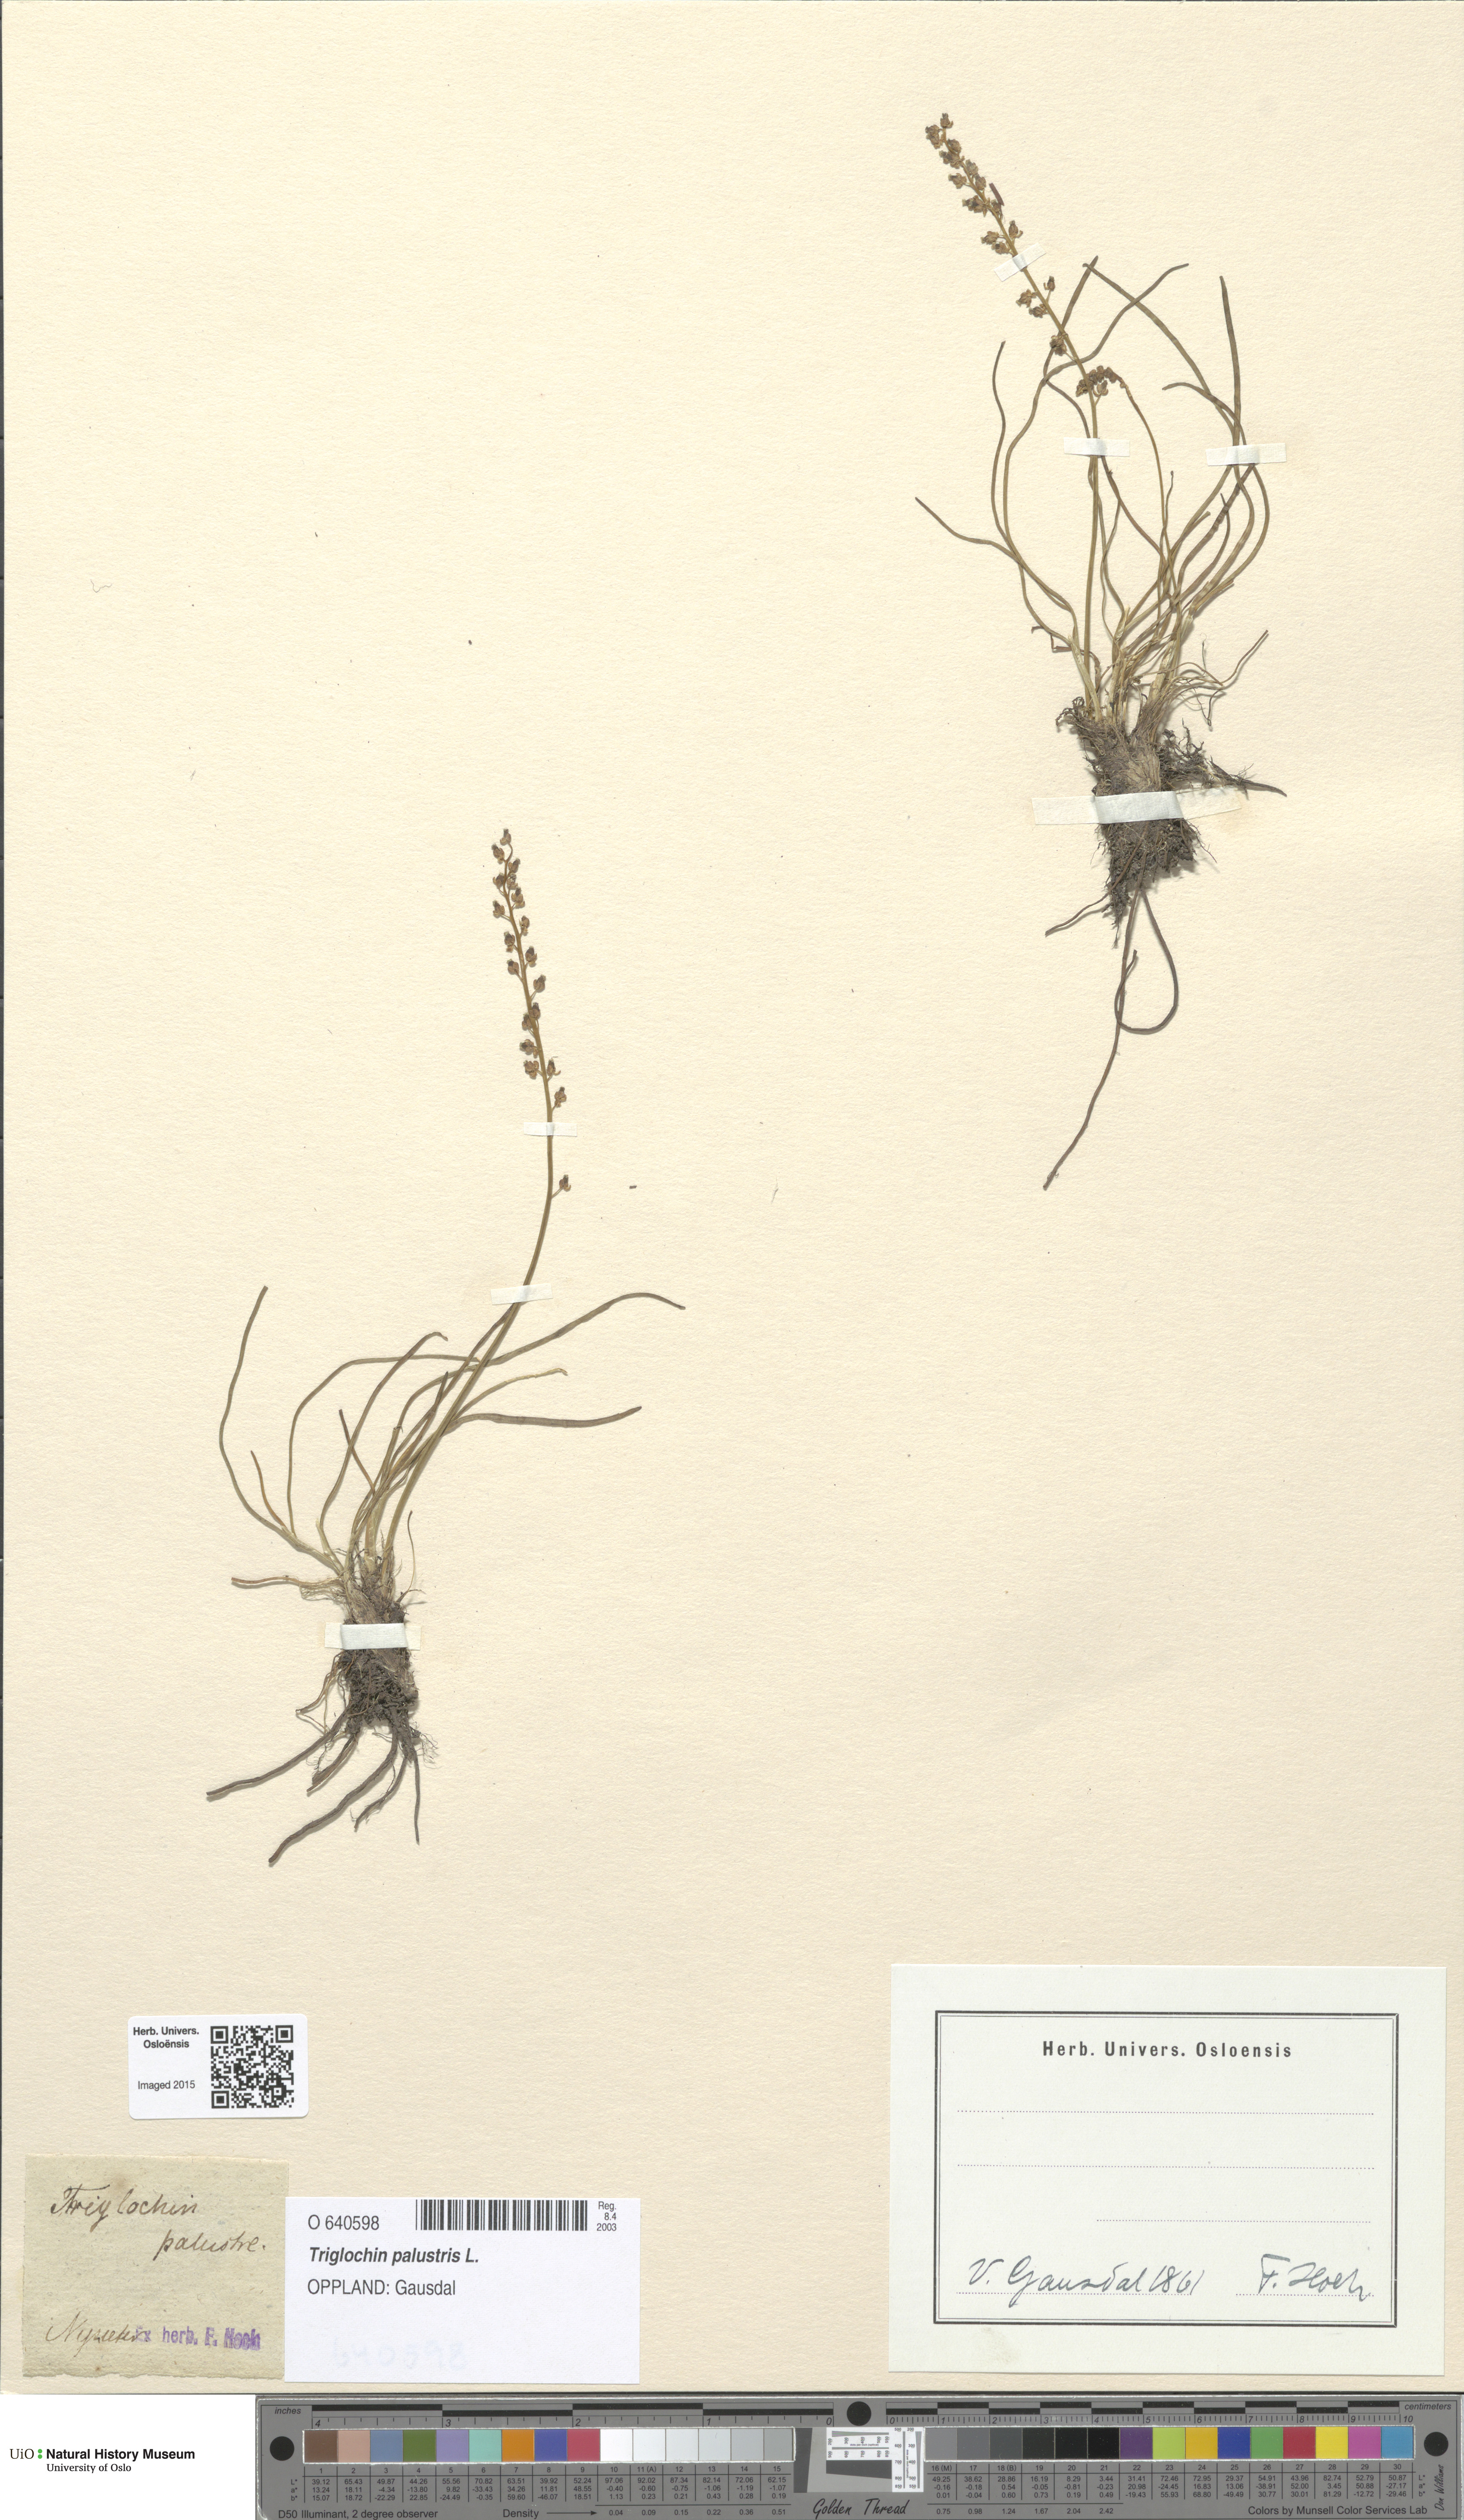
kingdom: Plantae
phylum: Tracheophyta
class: Liliopsida
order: Alismatales
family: Juncaginaceae
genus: Triglochin
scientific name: Triglochin palustris
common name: Marsh arrowgrass
